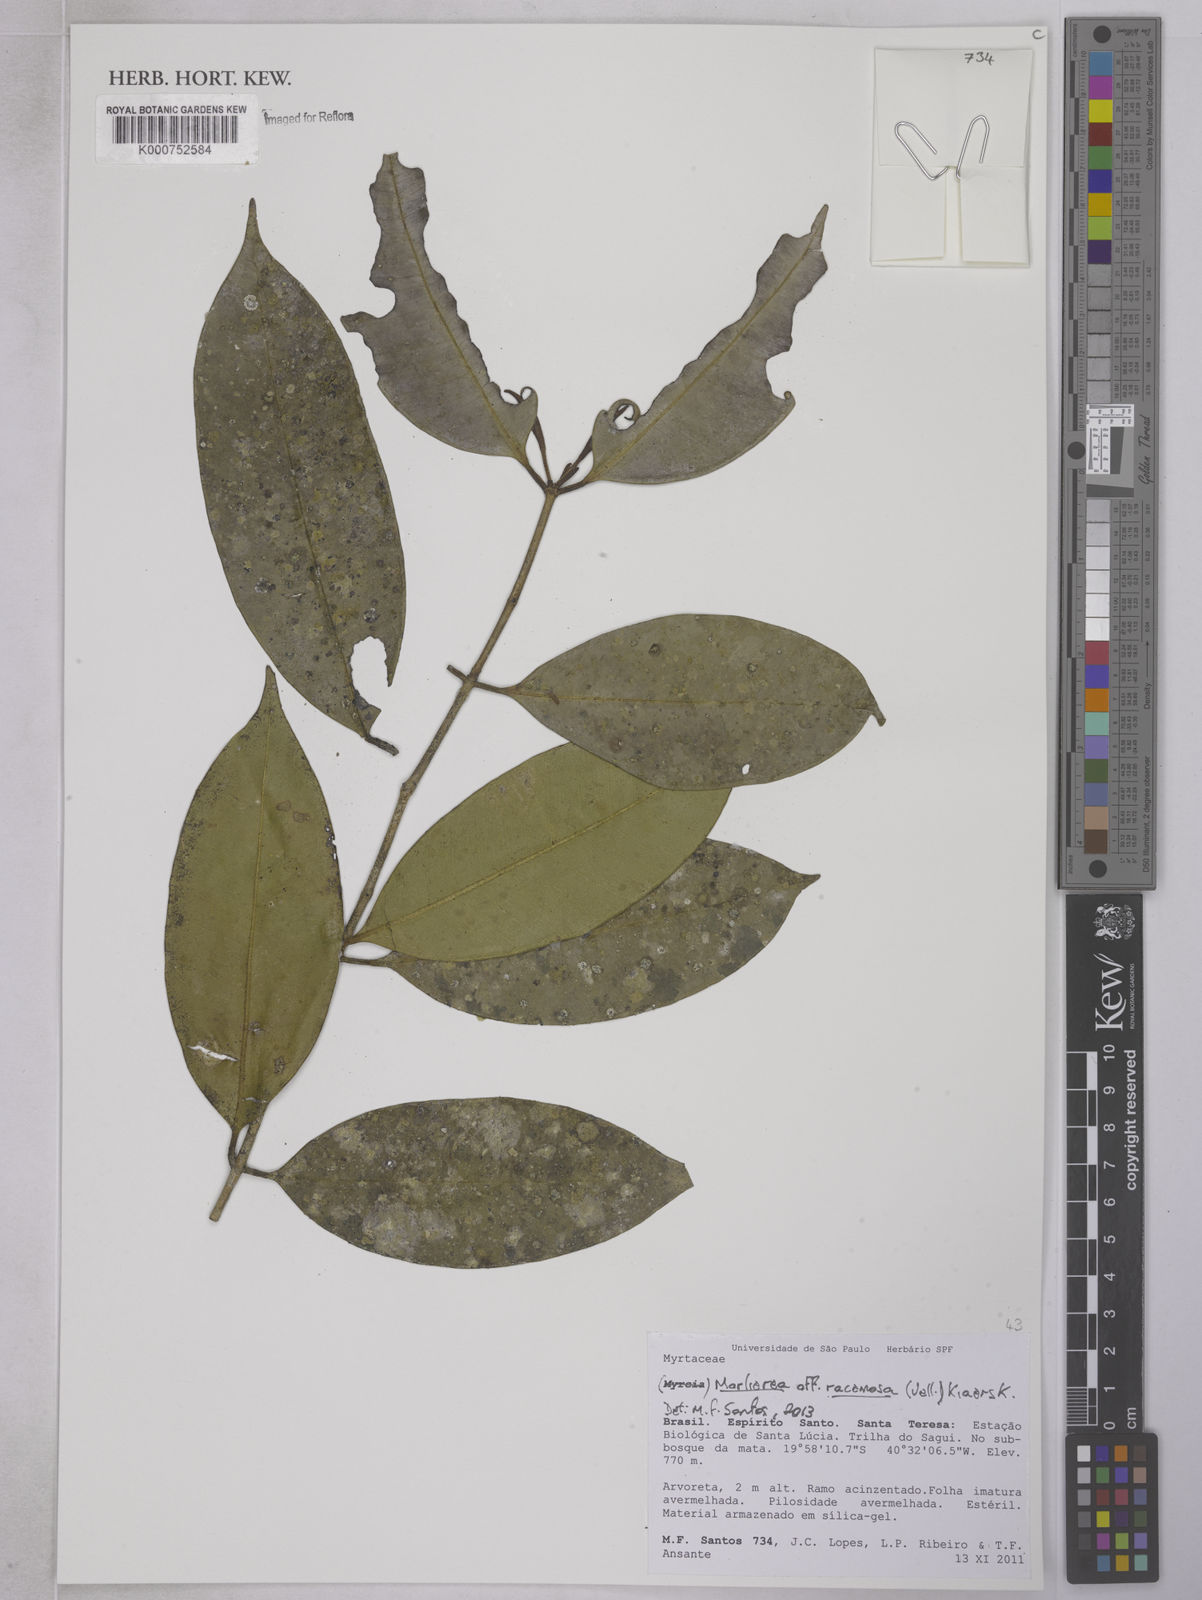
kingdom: Plantae
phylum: Tracheophyta
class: Magnoliopsida
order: Myrtales
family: Myrtaceae
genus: Myrcia
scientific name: Myrcia vellozoi
